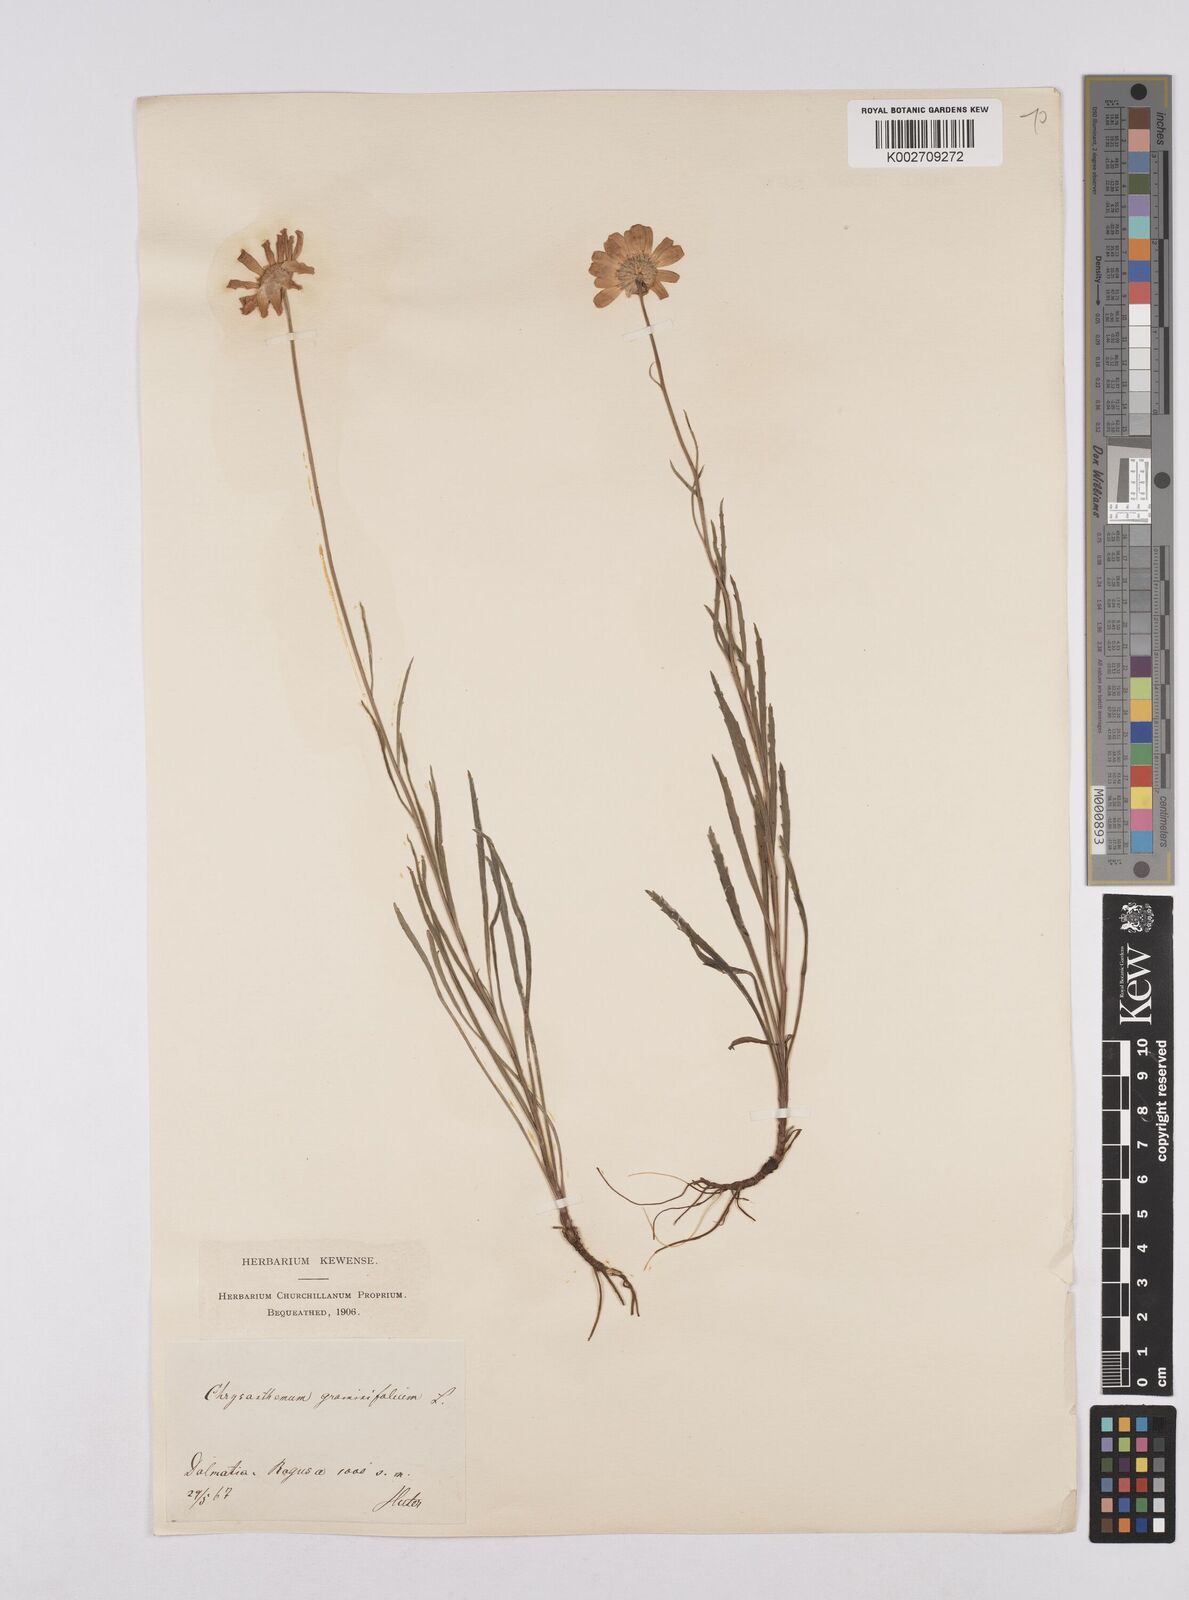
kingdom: Plantae
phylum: Tracheophyta
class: Magnoliopsida
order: Asterales
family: Asteraceae
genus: Leucanthemum
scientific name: Leucanthemum chloroticum
